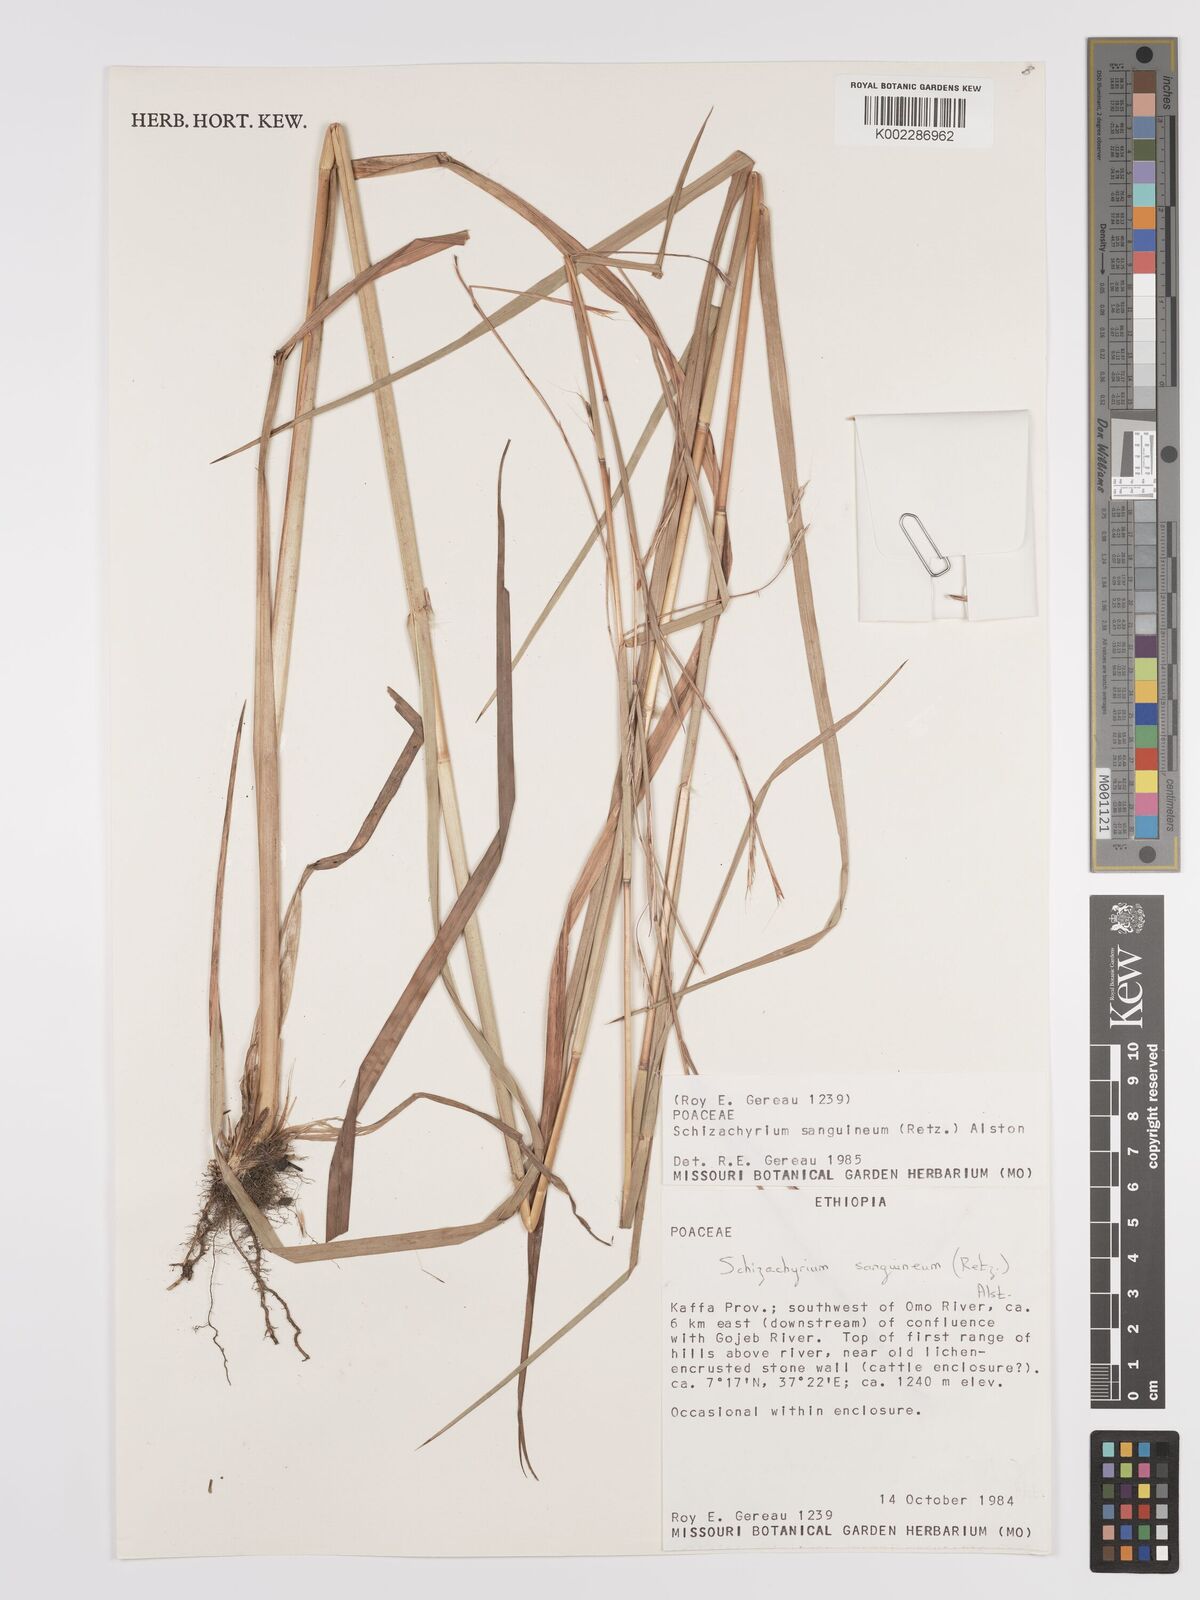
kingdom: Plantae
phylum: Tracheophyta
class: Liliopsida
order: Poales
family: Poaceae
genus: Schizachyrium
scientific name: Schizachyrium sanguineum
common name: Crimson bluestem
